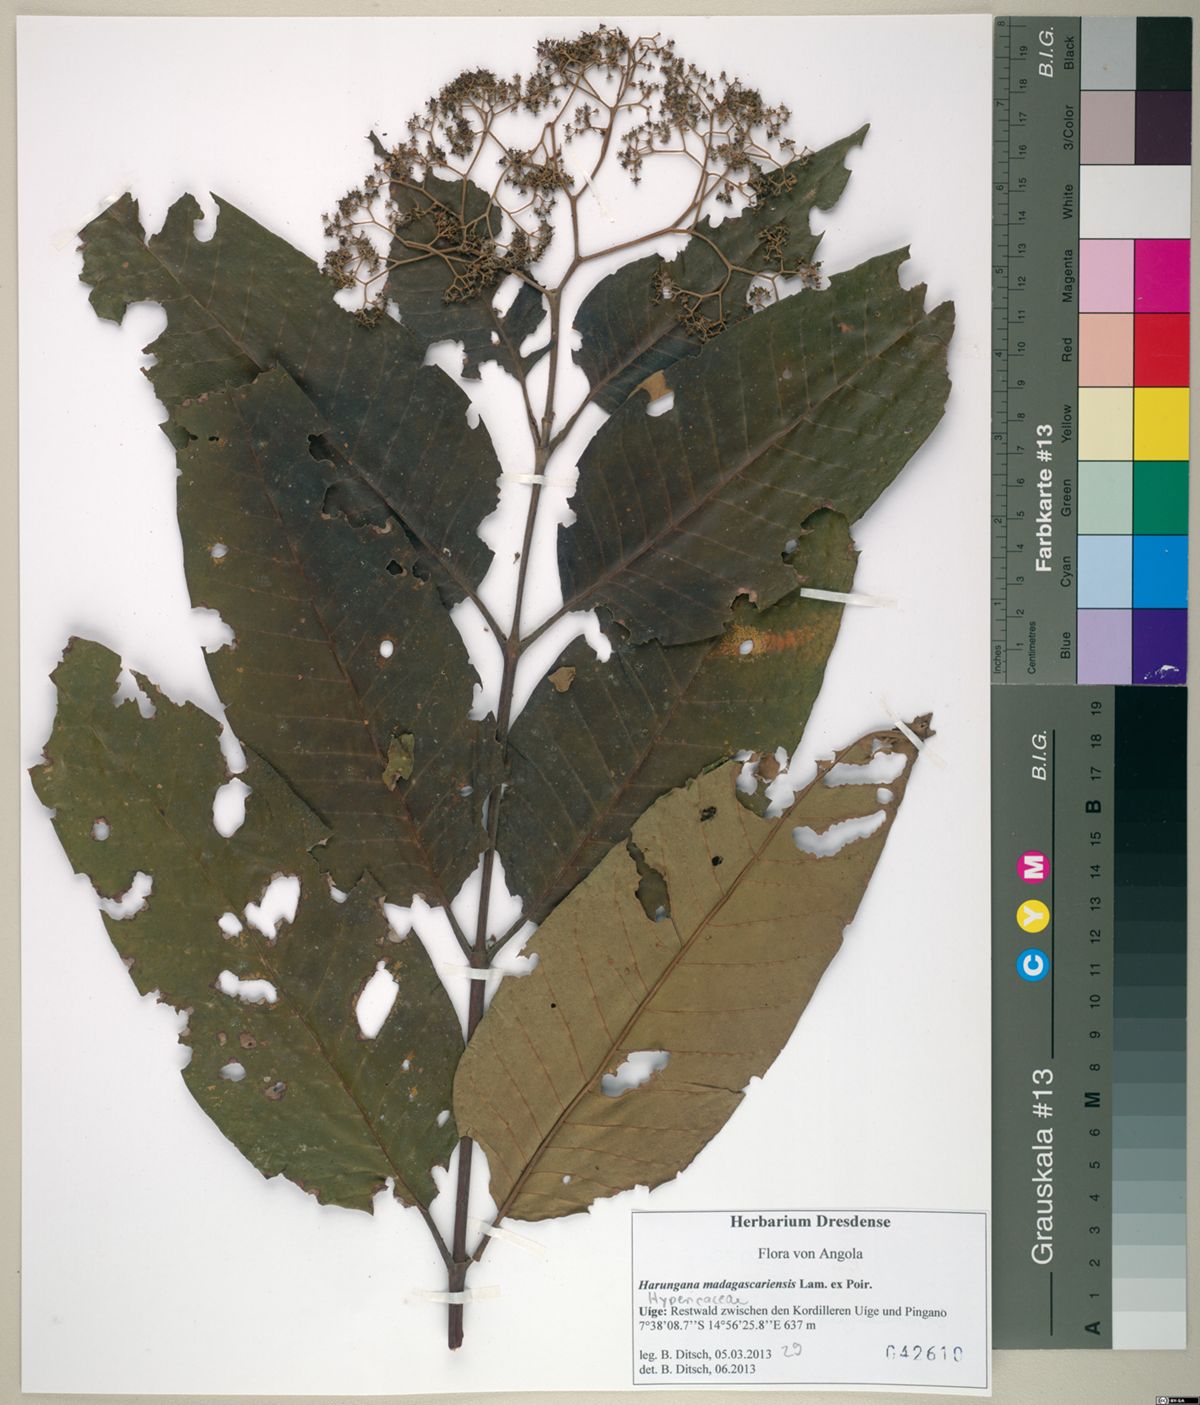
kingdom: Plantae
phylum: Tracheophyta
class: Magnoliopsida
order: Malpighiales
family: Hypericaceae
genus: Harungana
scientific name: Harungana madagascariensis
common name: Orange milktree
